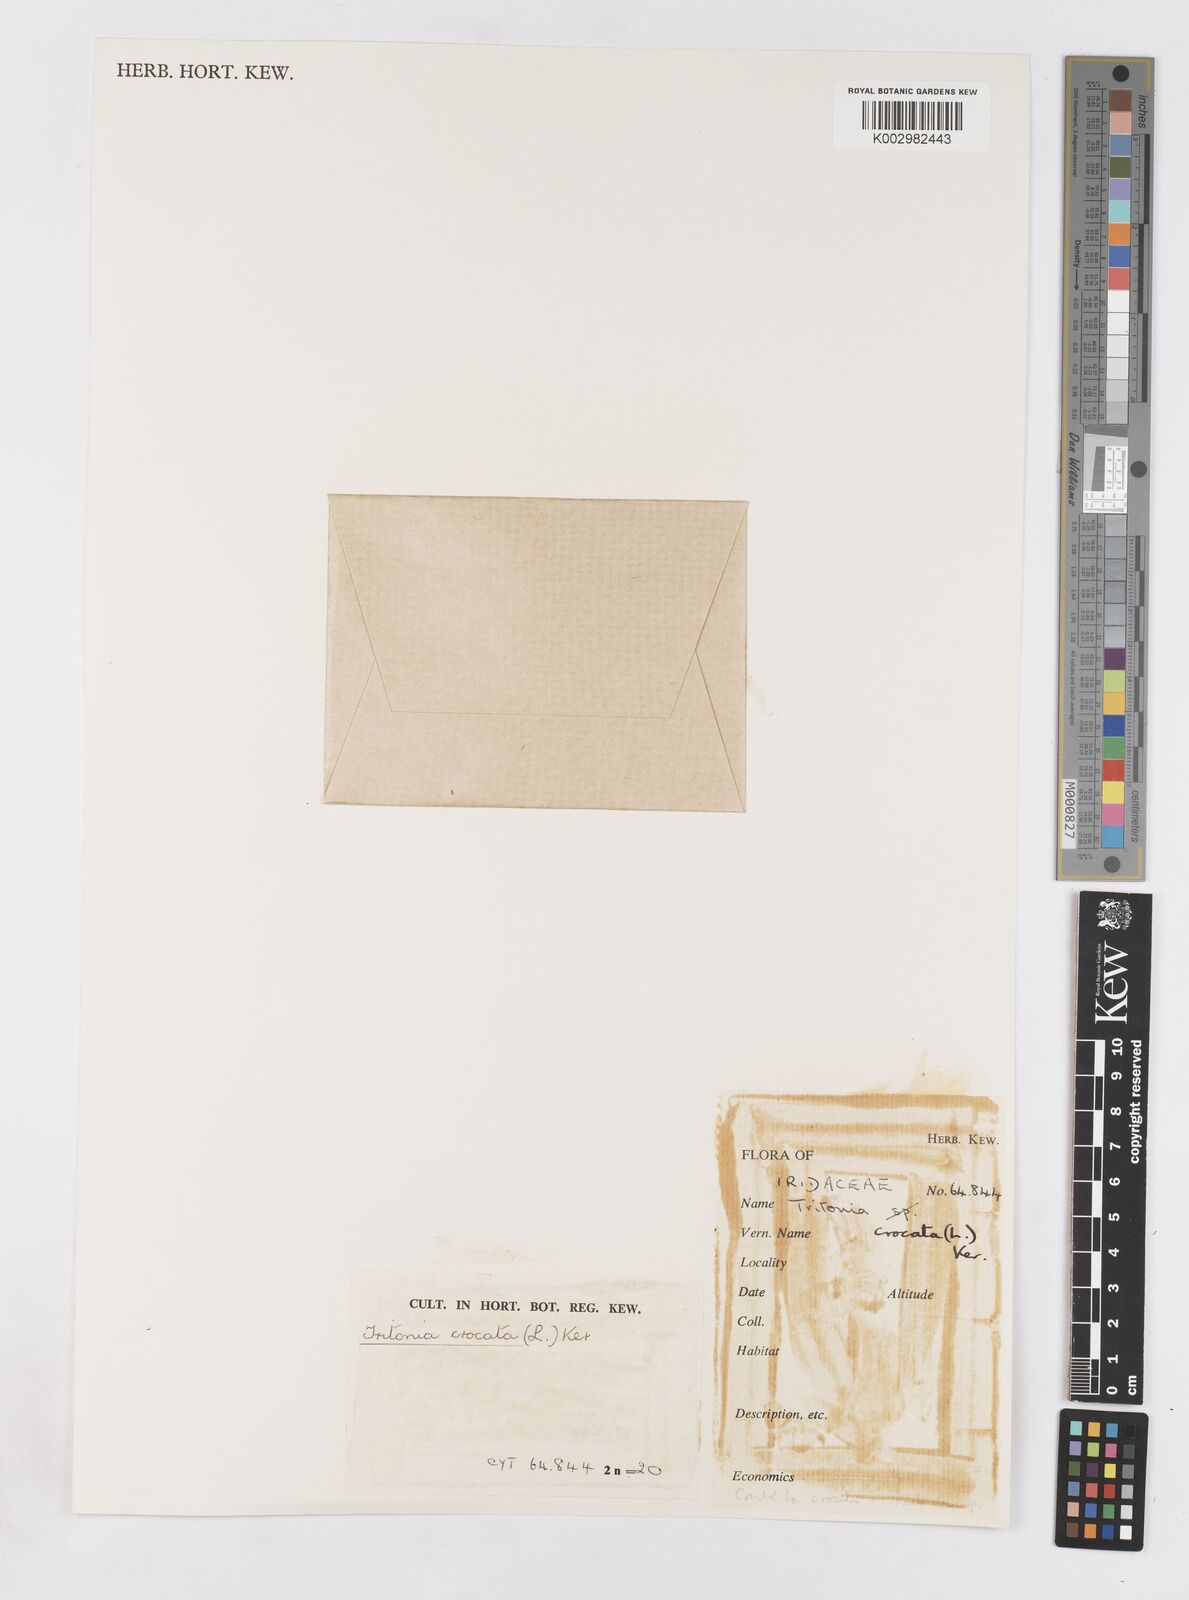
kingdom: Plantae
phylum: Tracheophyta
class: Liliopsida
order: Asparagales
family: Iridaceae
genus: Tritonia
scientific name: Tritonia crocata
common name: Flame-freesia
